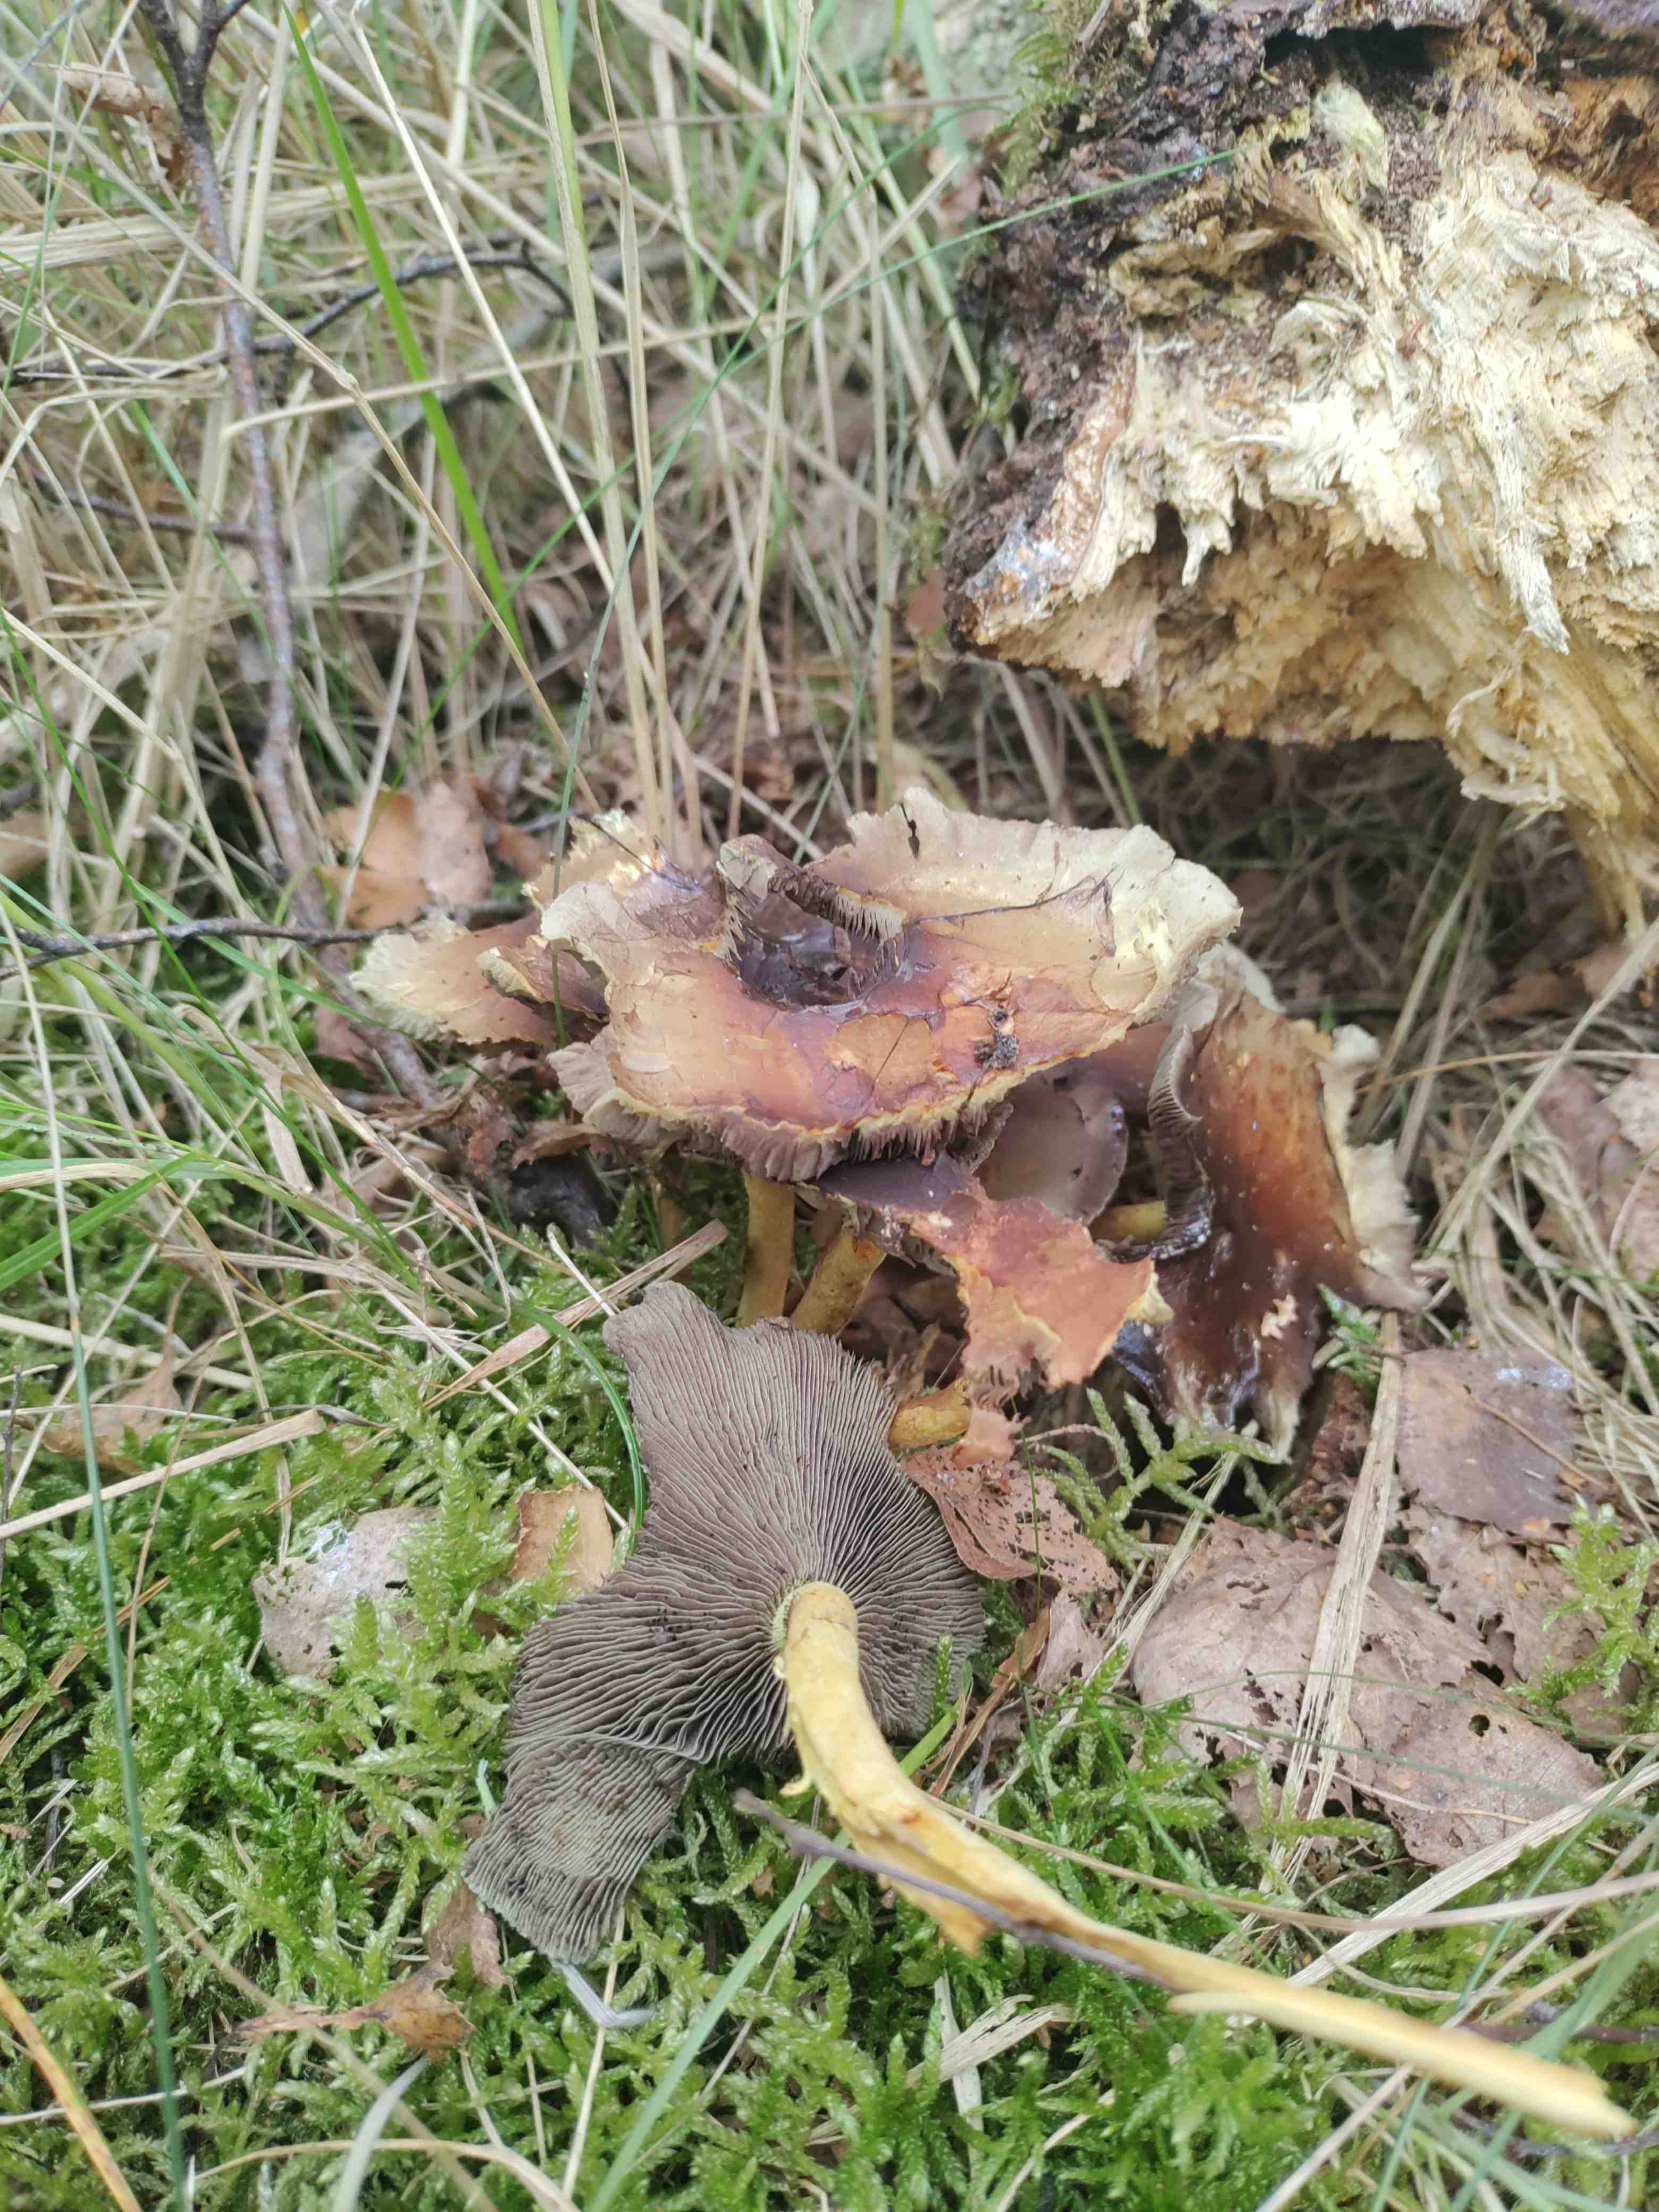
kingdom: Fungi
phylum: Basidiomycota
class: Agaricomycetes
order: Agaricales
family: Strophariaceae
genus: Hypholoma
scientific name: Hypholoma fasciculare
